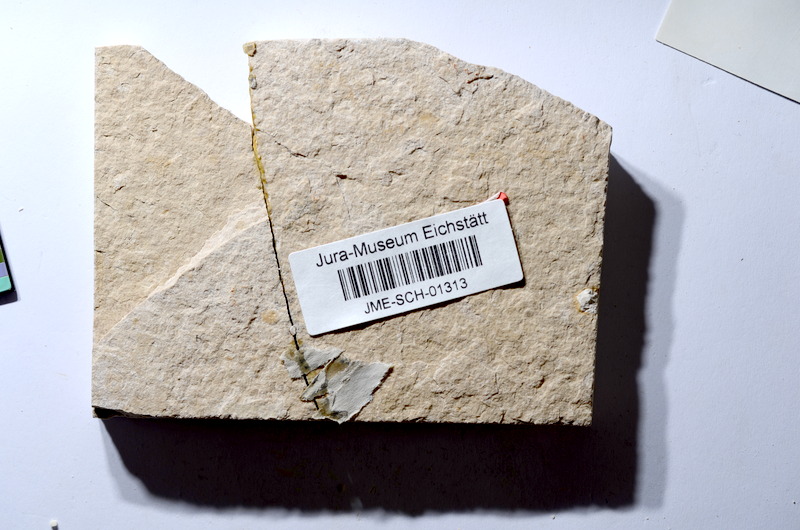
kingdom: Animalia
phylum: Chordata
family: Ascalaboidae
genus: Tharsis
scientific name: Tharsis dubius
